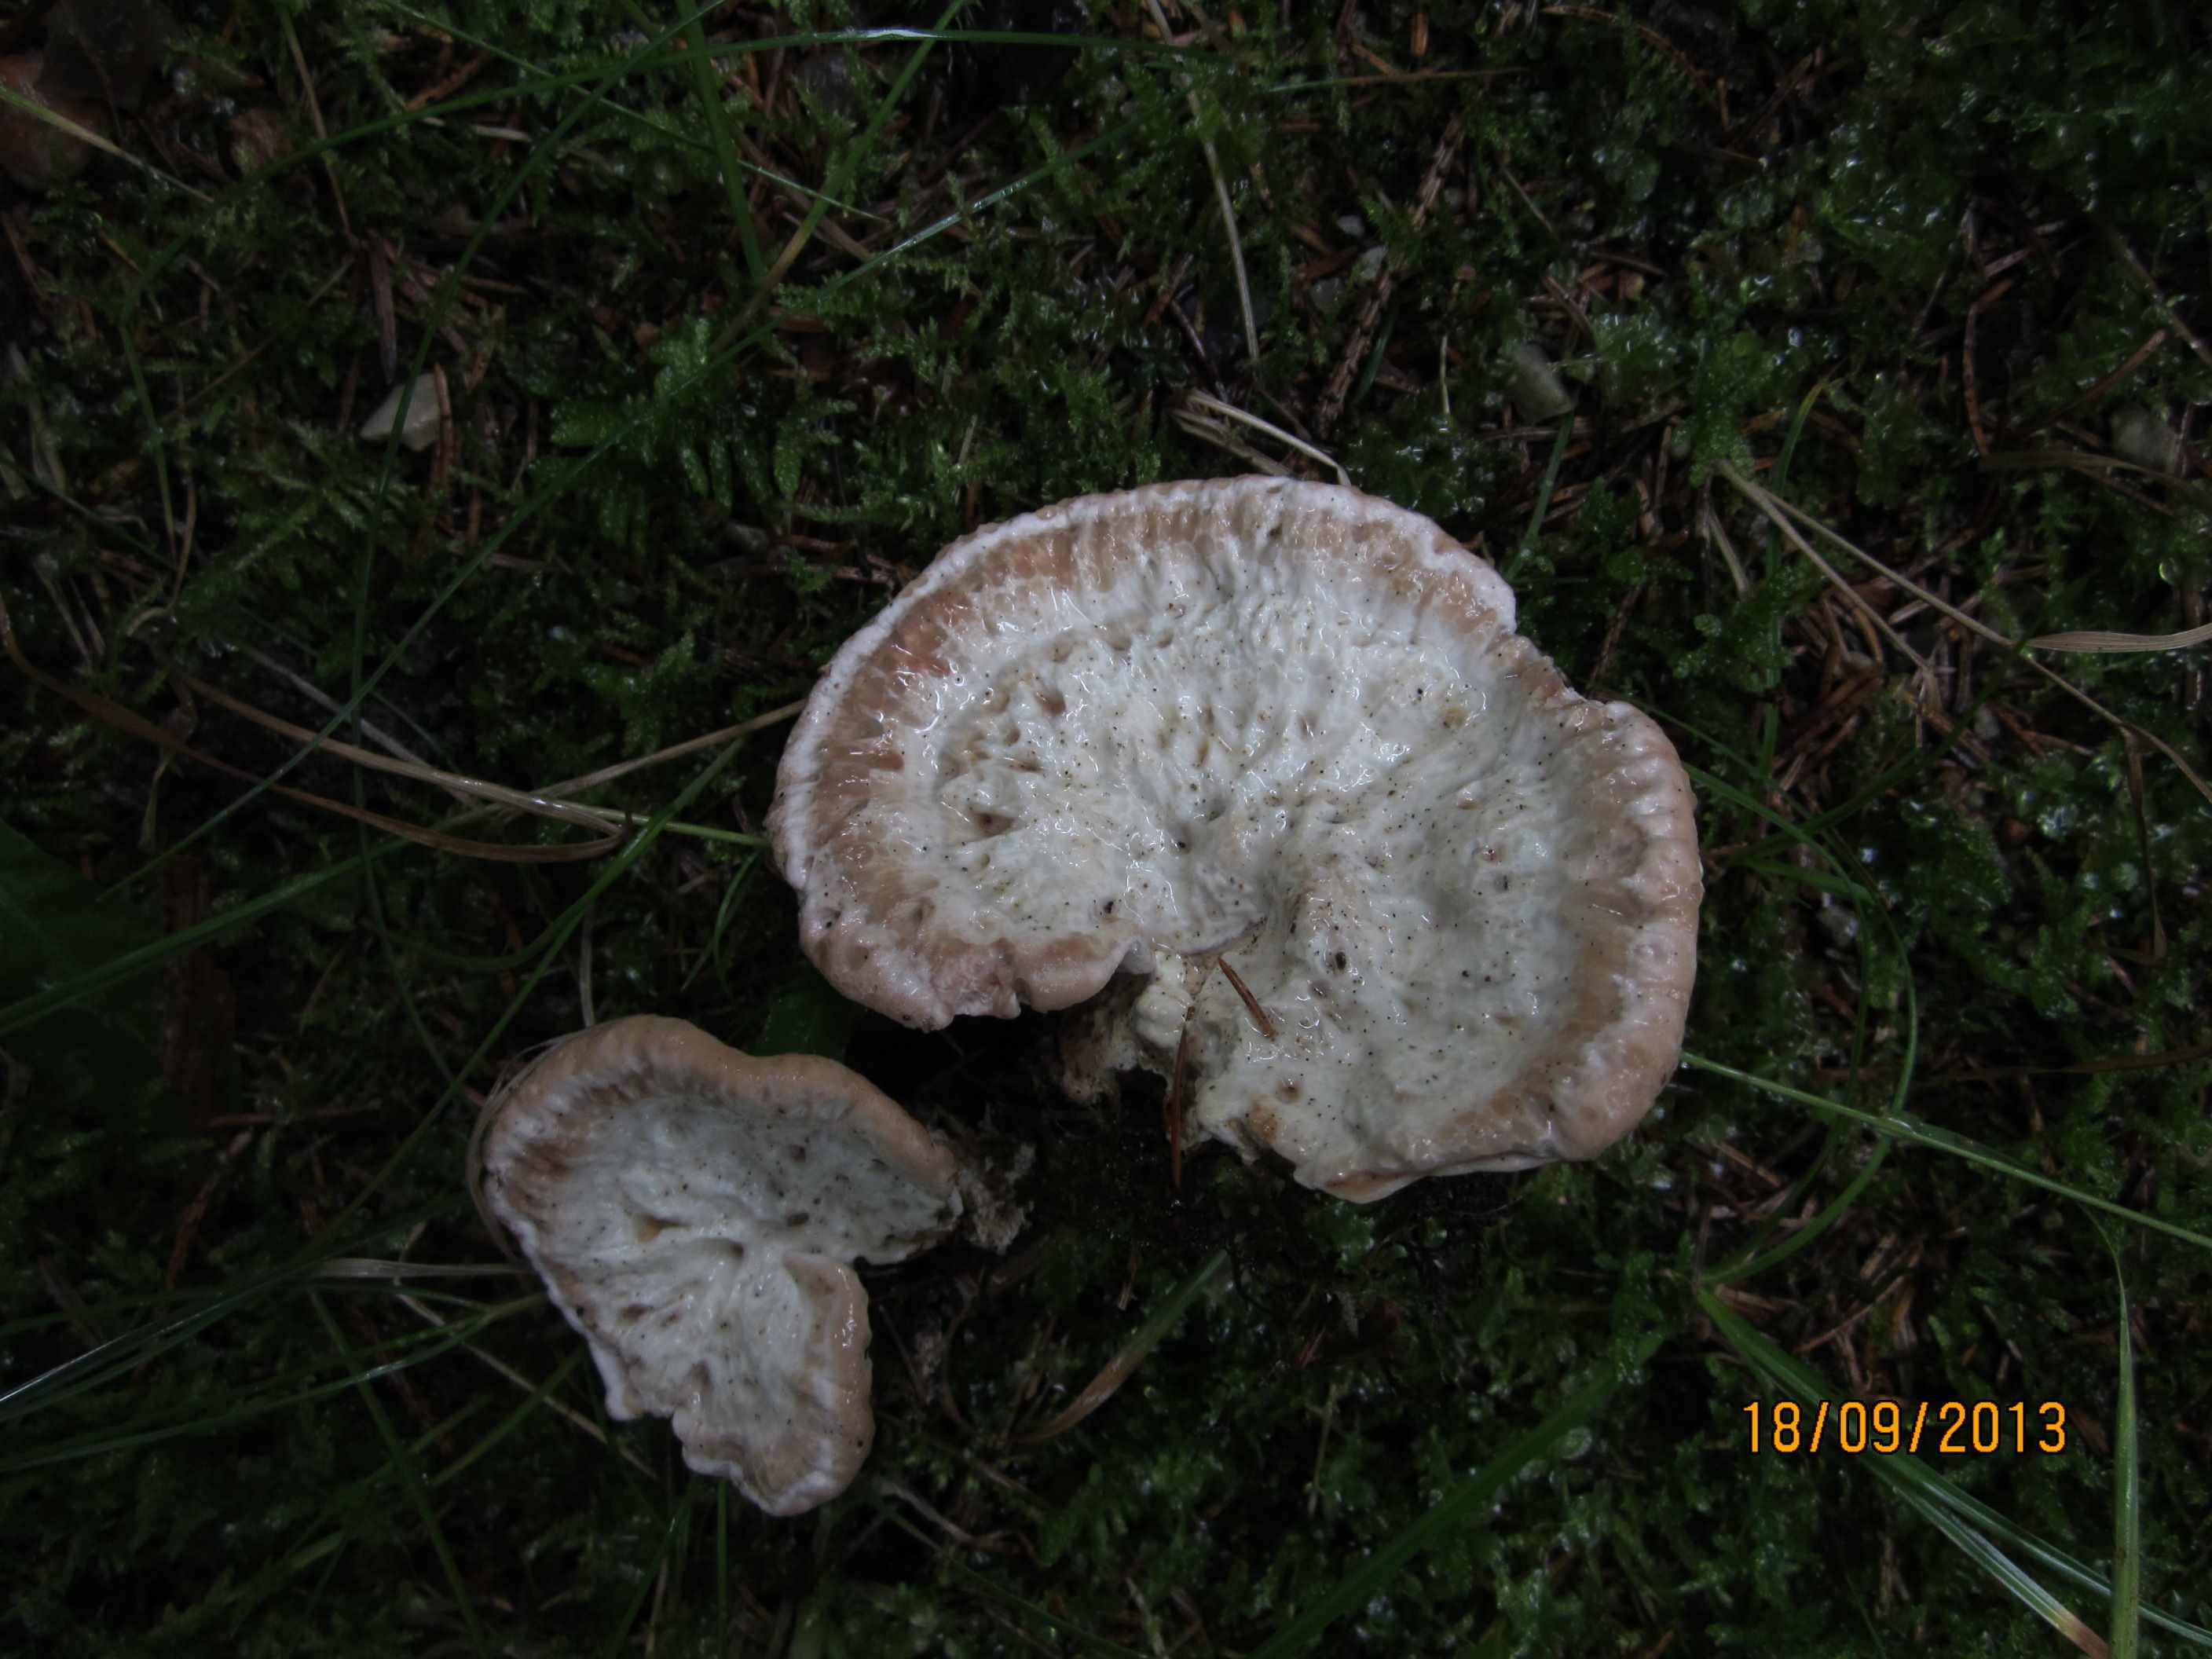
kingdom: Fungi
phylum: Basidiomycota
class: Agaricomycetes
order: Polyporales
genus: Calcipostia
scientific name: Calcipostia guttulata
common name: dråbe-kødporesvamp
